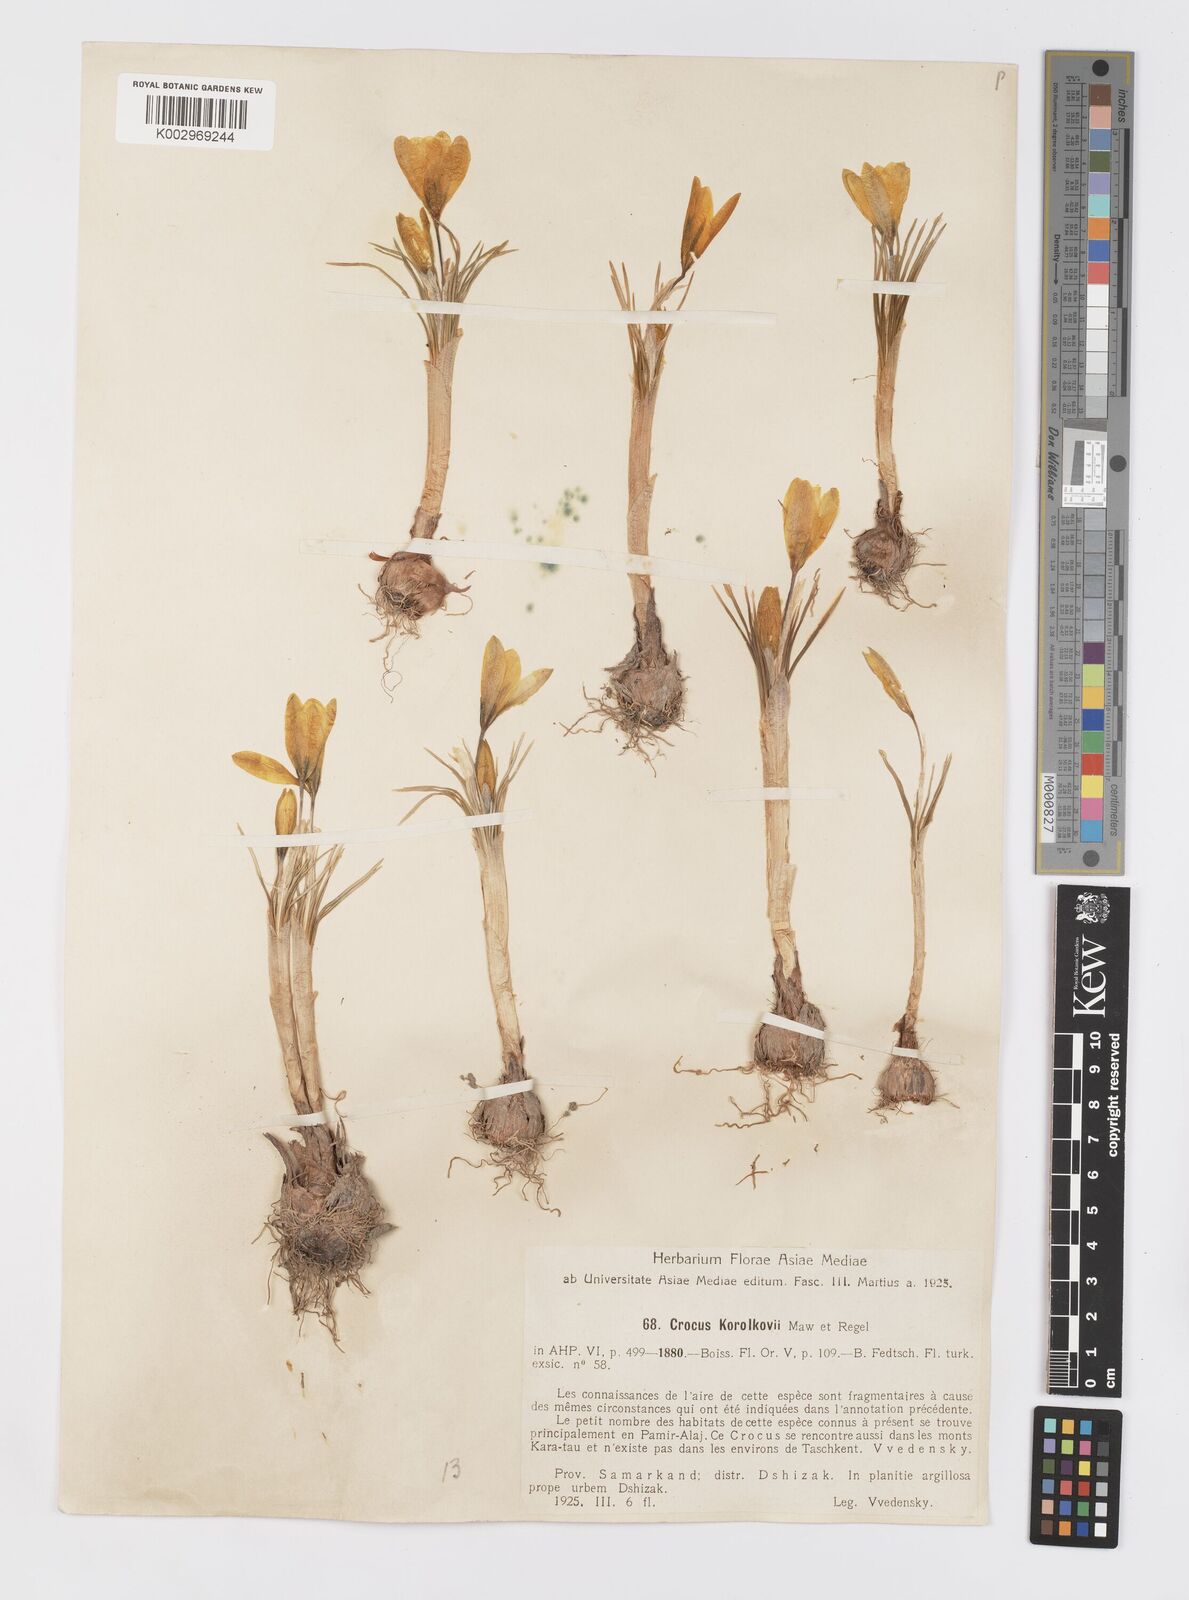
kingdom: Plantae
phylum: Tracheophyta
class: Liliopsida
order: Asparagales
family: Iridaceae
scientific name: Iridaceae
